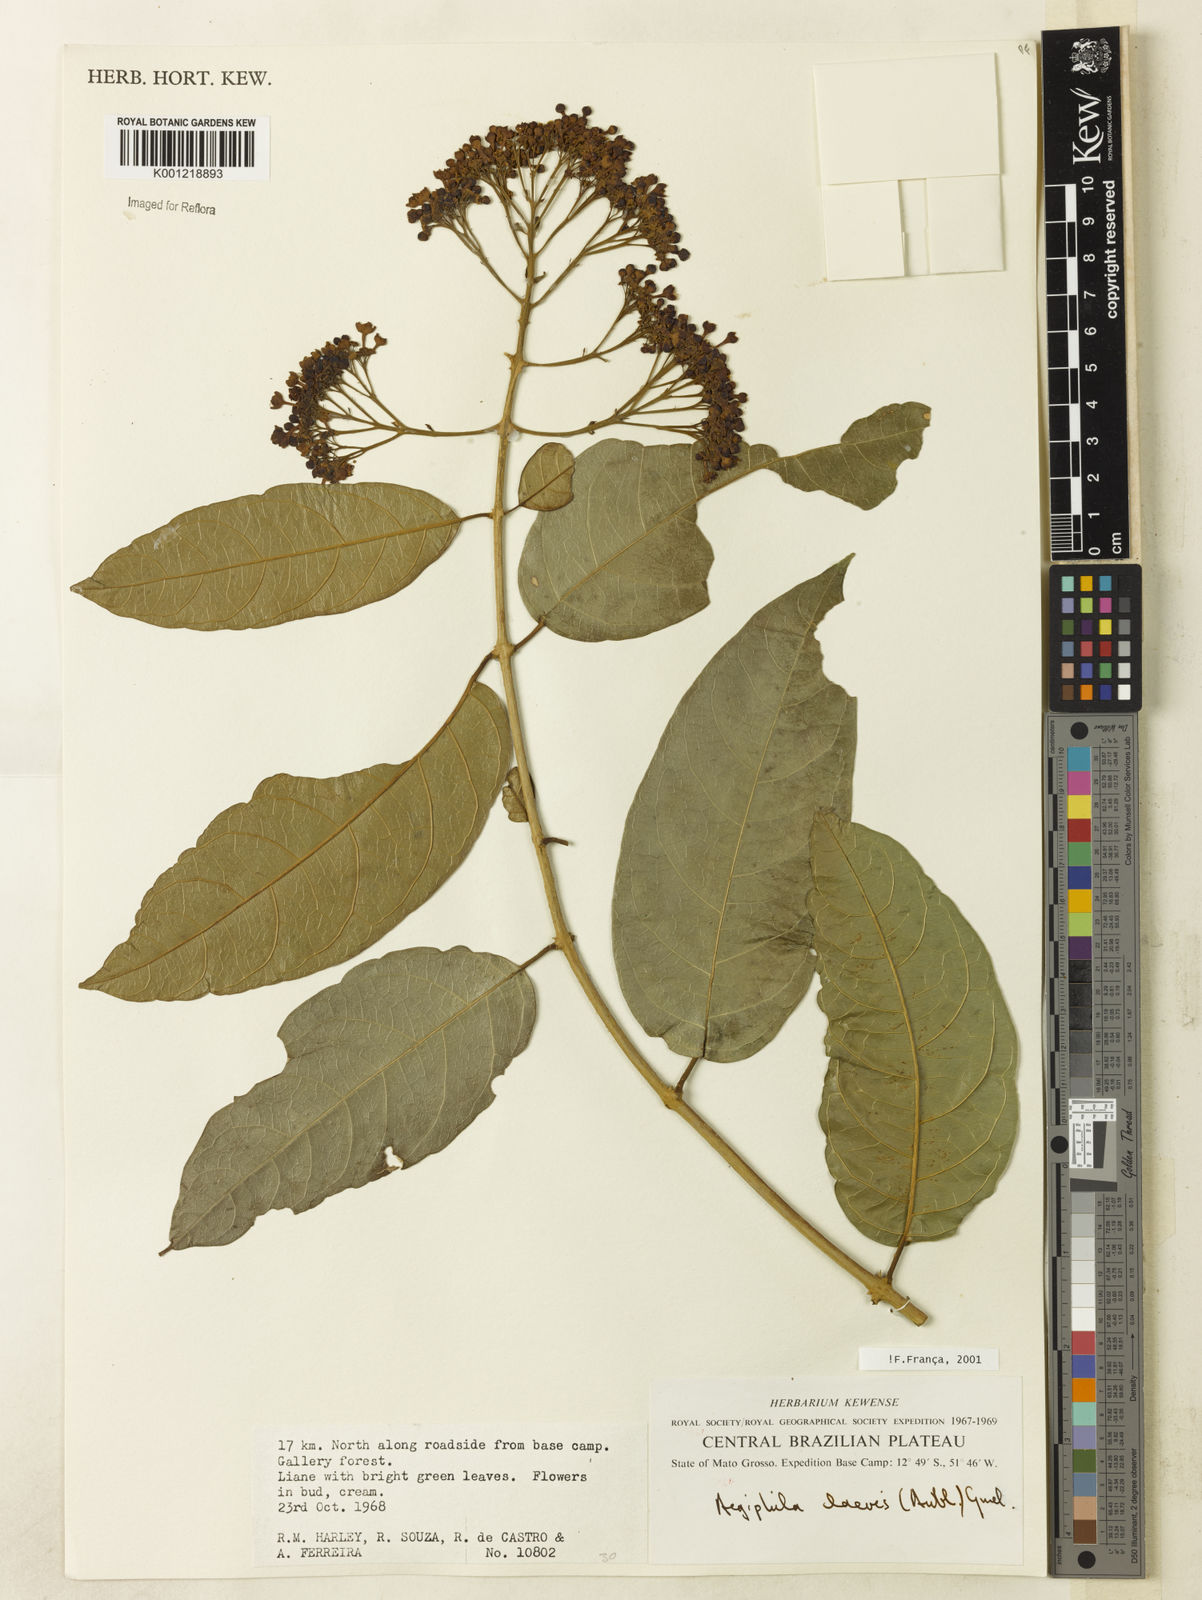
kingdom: Plantae
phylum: Tracheophyta
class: Magnoliopsida
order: Lamiales
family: Lamiaceae
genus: Aegiphila
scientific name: Aegiphila laevis
